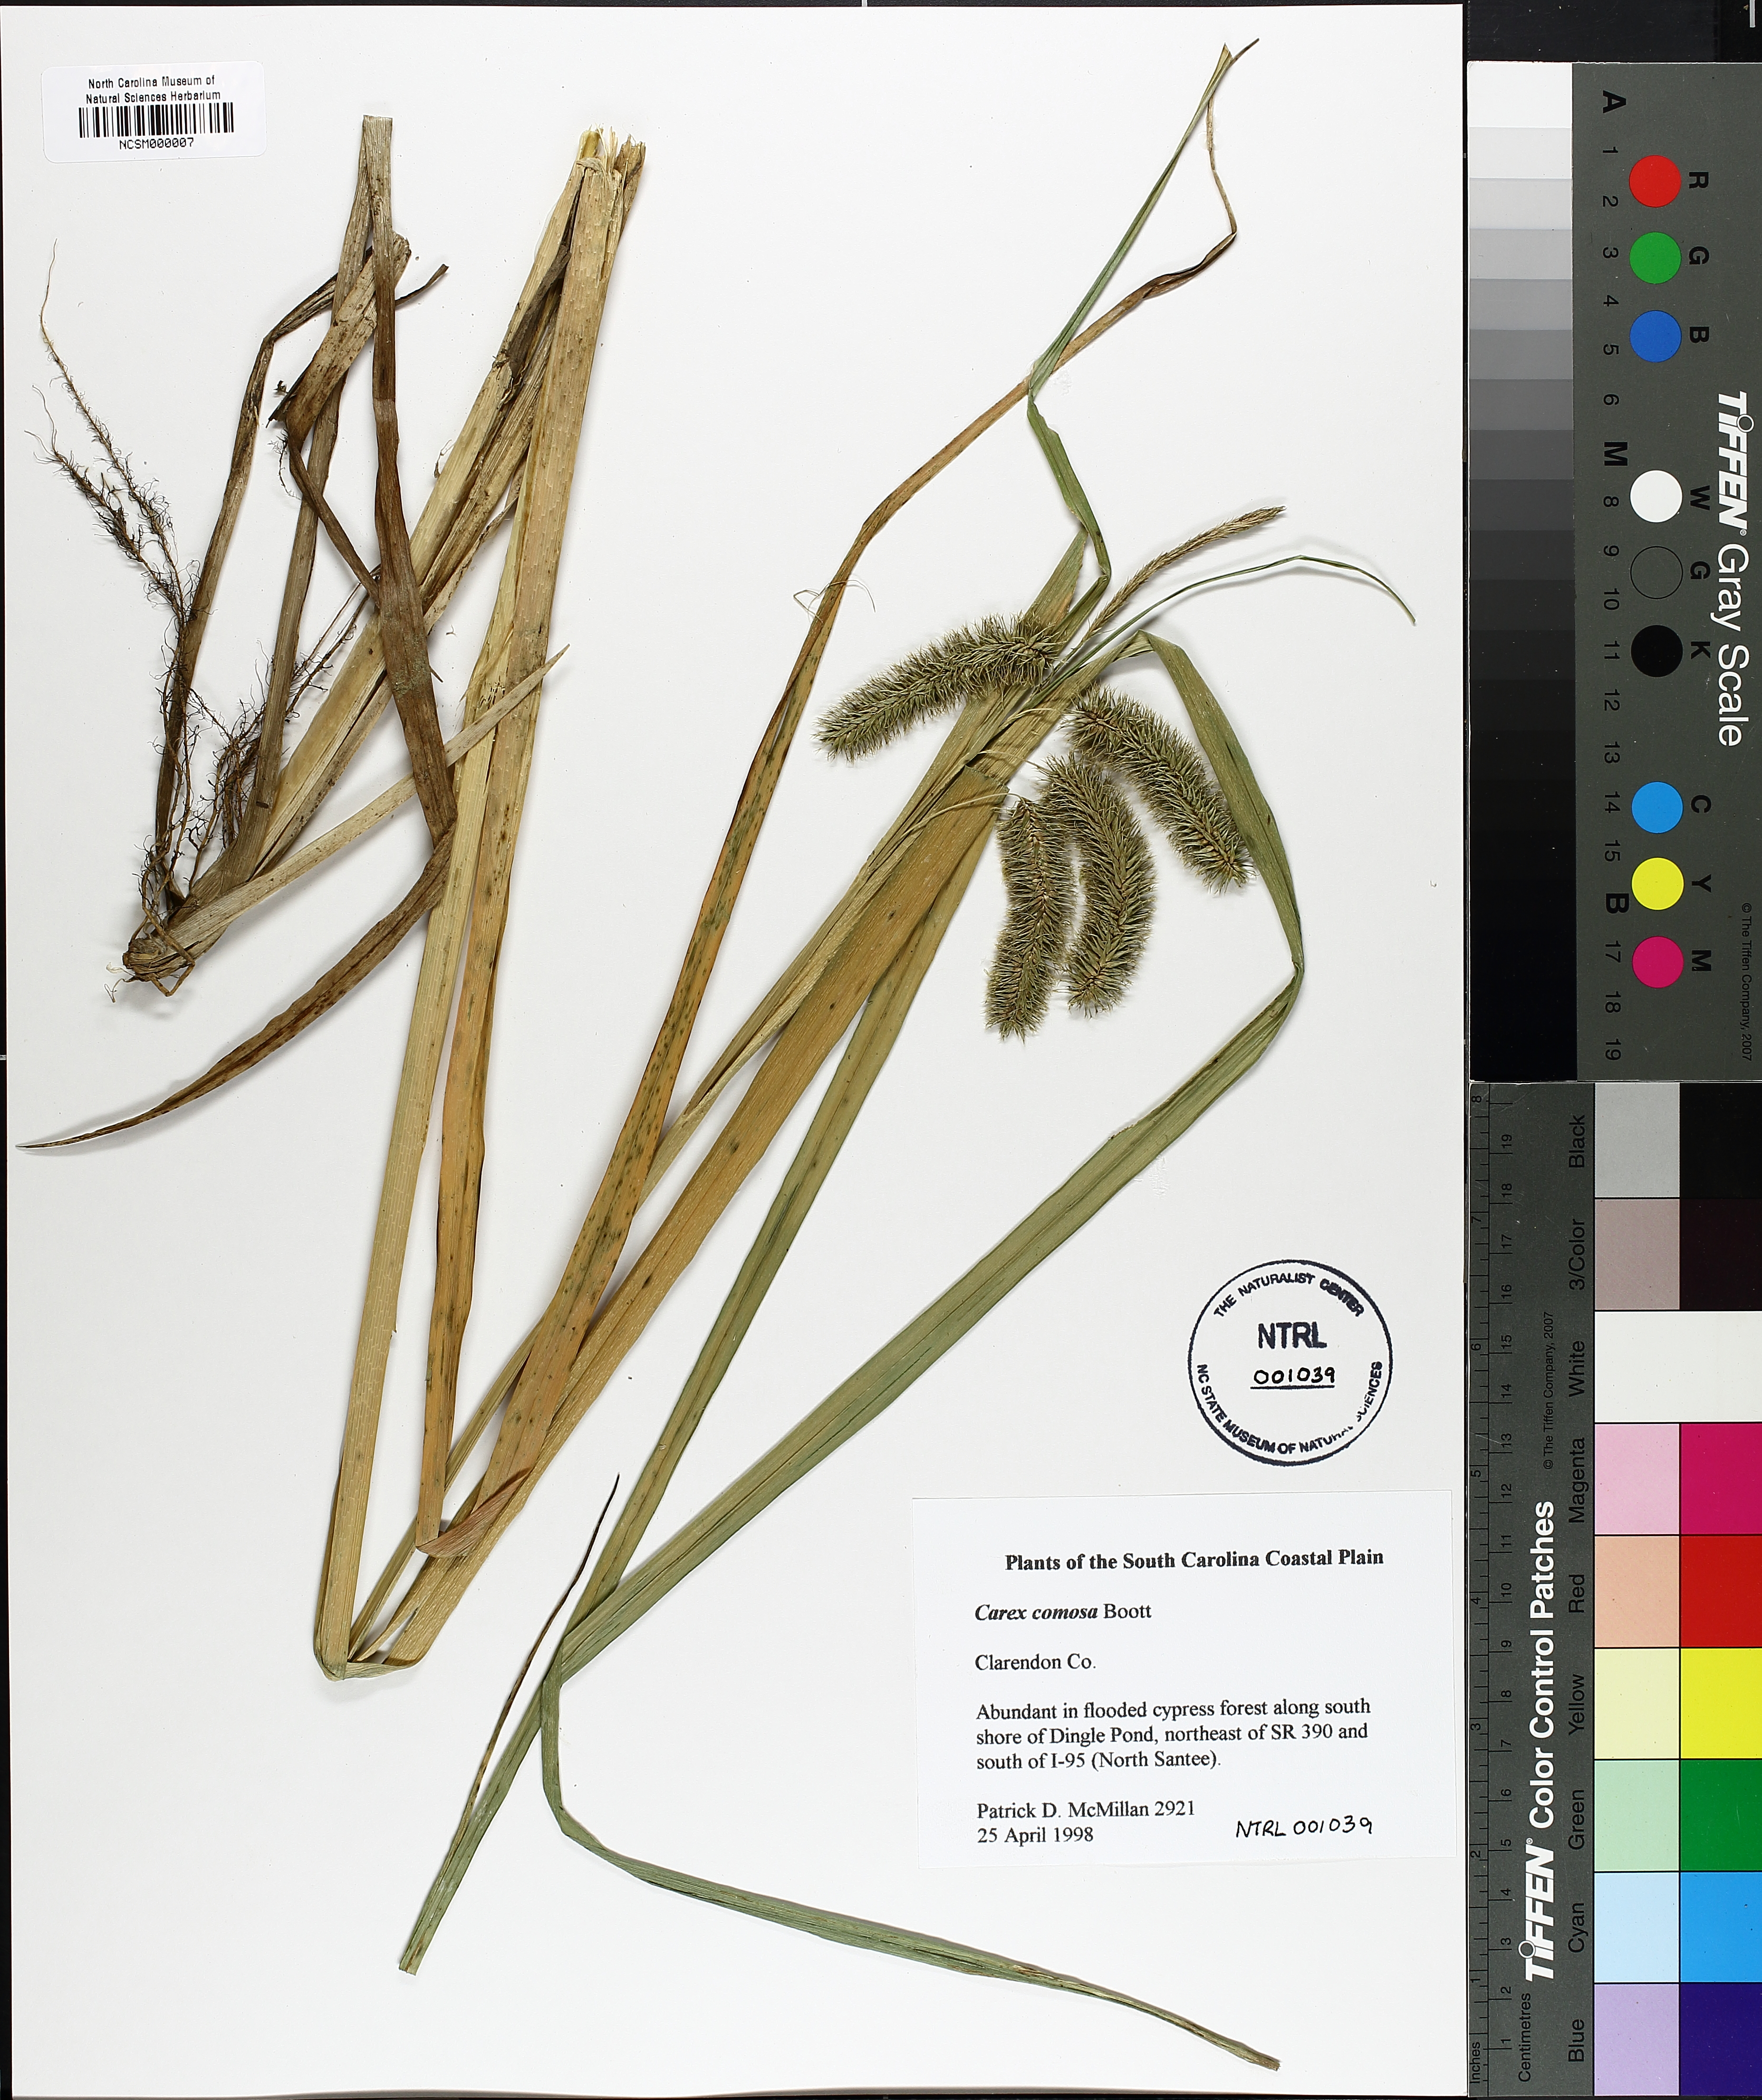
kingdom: Plantae
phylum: Tracheophyta
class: Liliopsida
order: Poales
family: Cyperaceae
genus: Carex
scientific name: Carex comosa
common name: Bristly sedge
